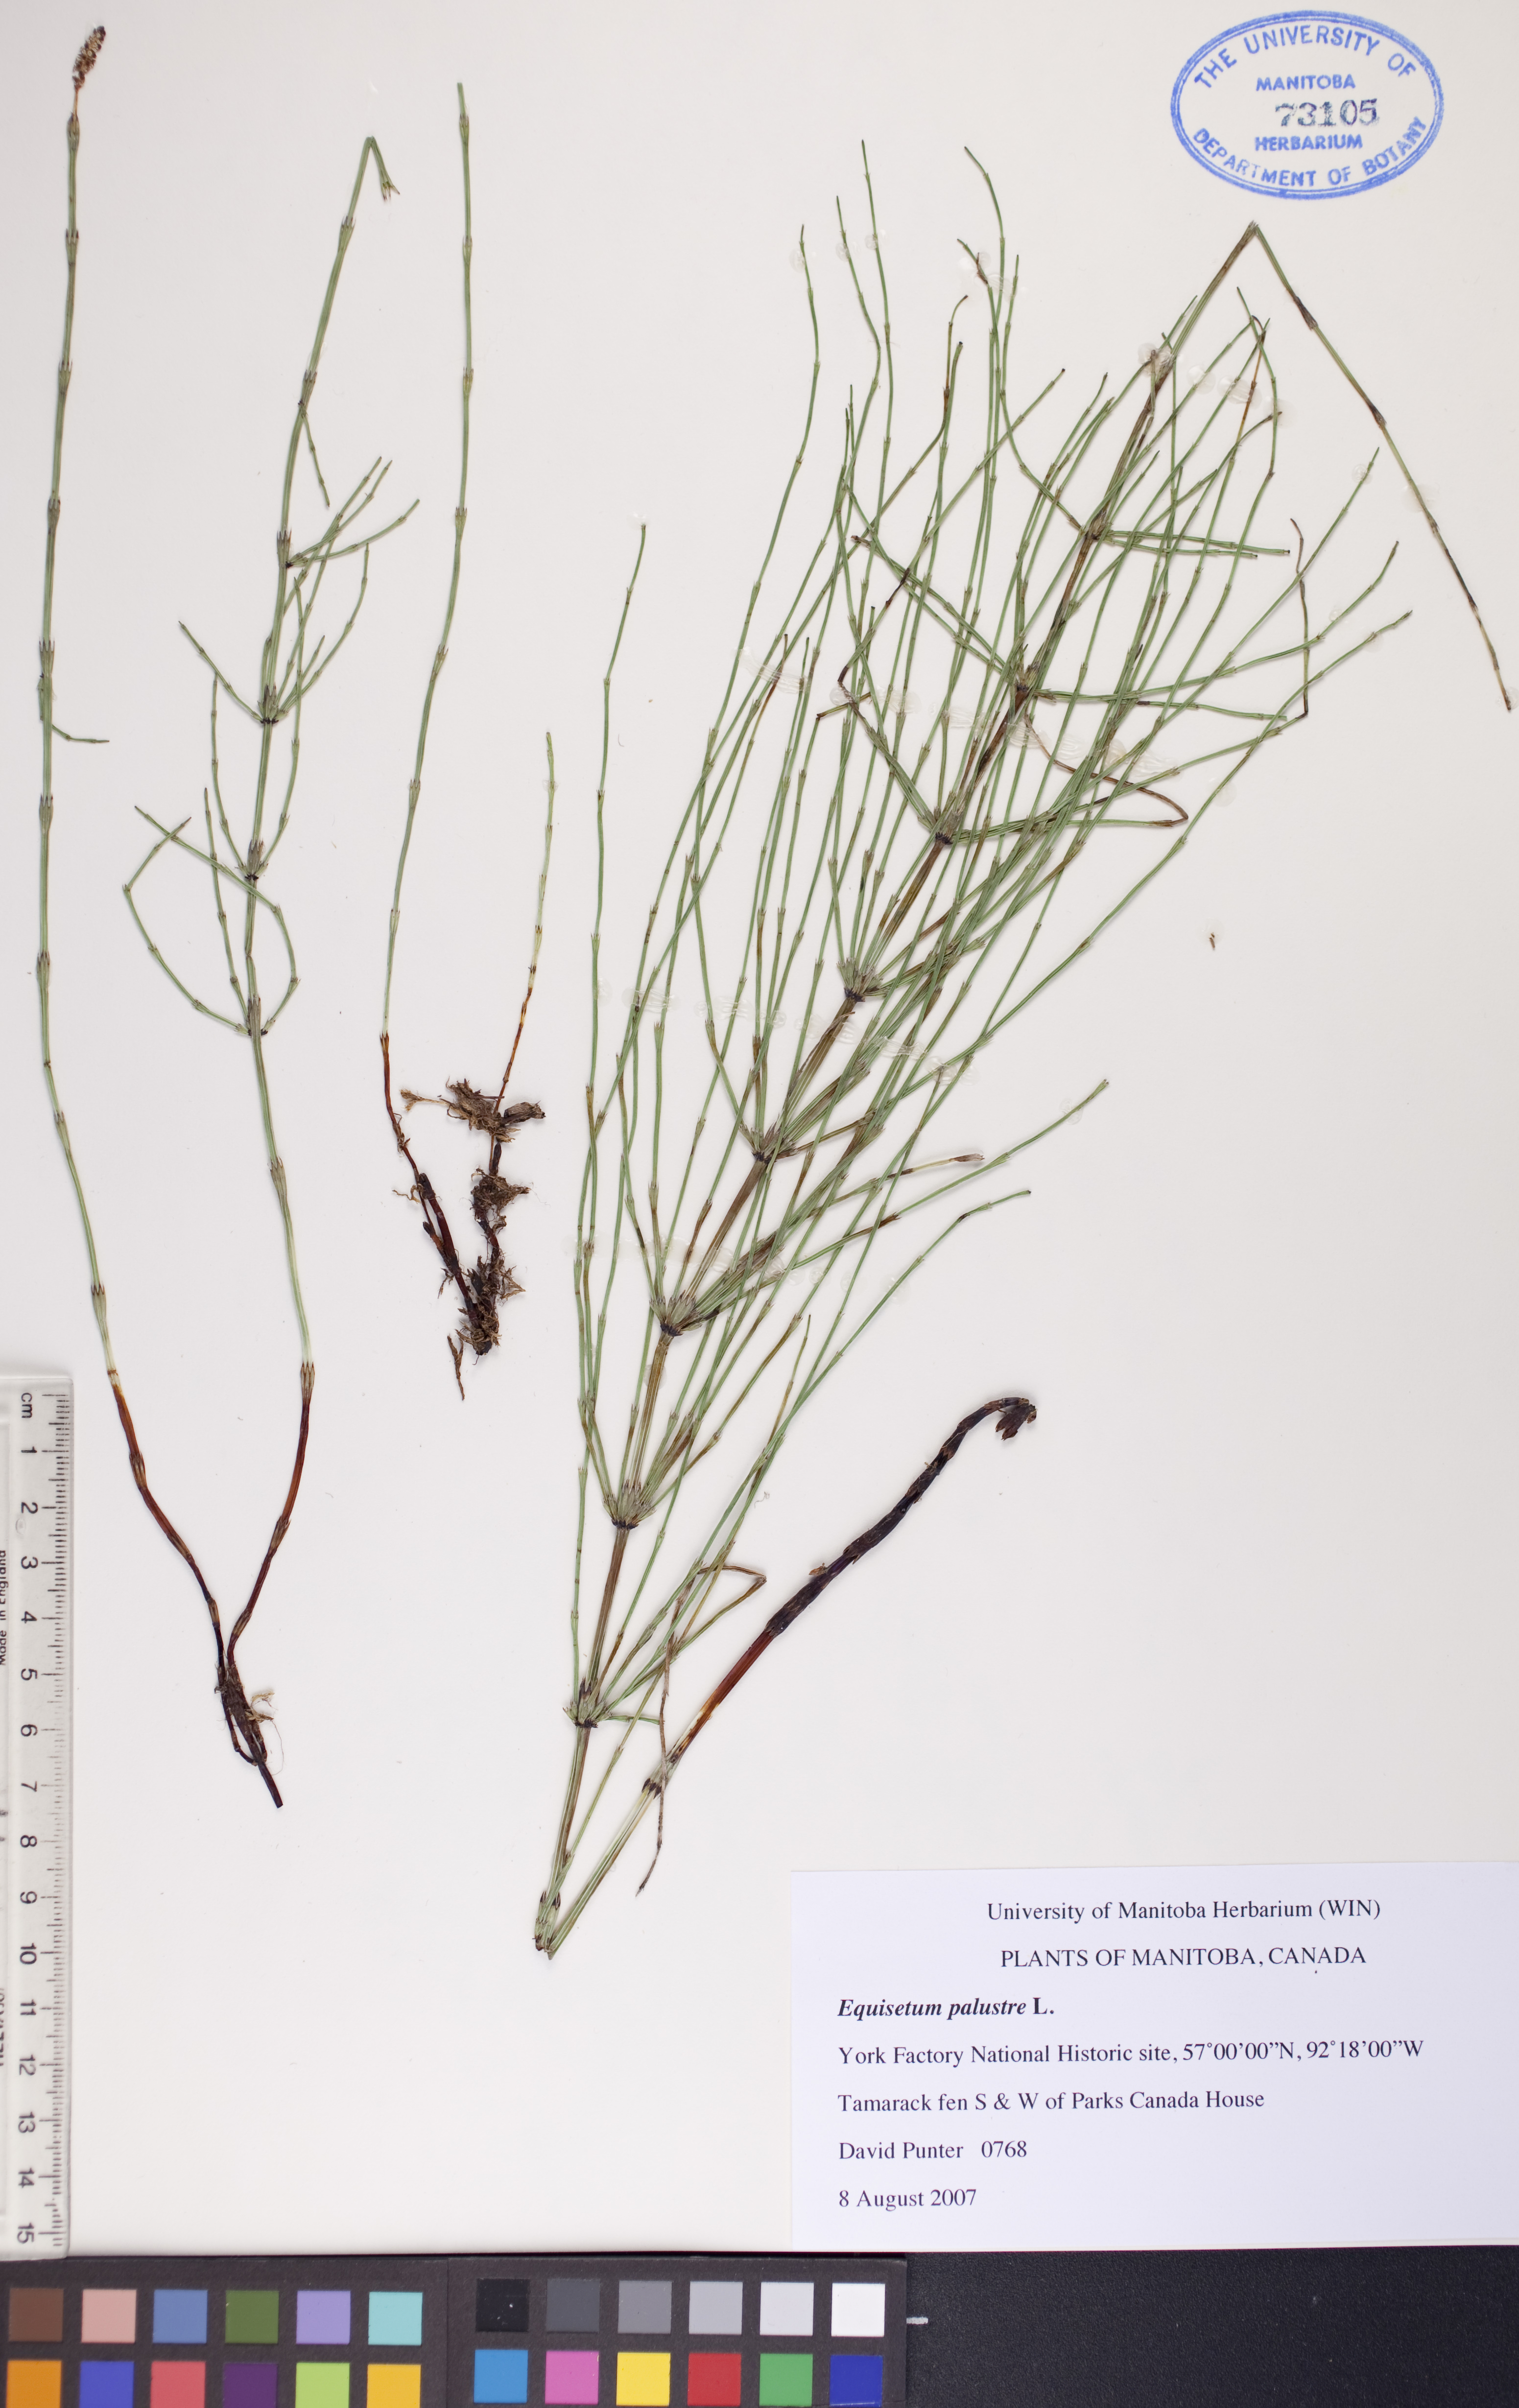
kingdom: Plantae
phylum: Tracheophyta
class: Polypodiopsida
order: Equisetales
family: Equisetaceae
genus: Equisetum
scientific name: Equisetum palustre
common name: Marsh horsetail
